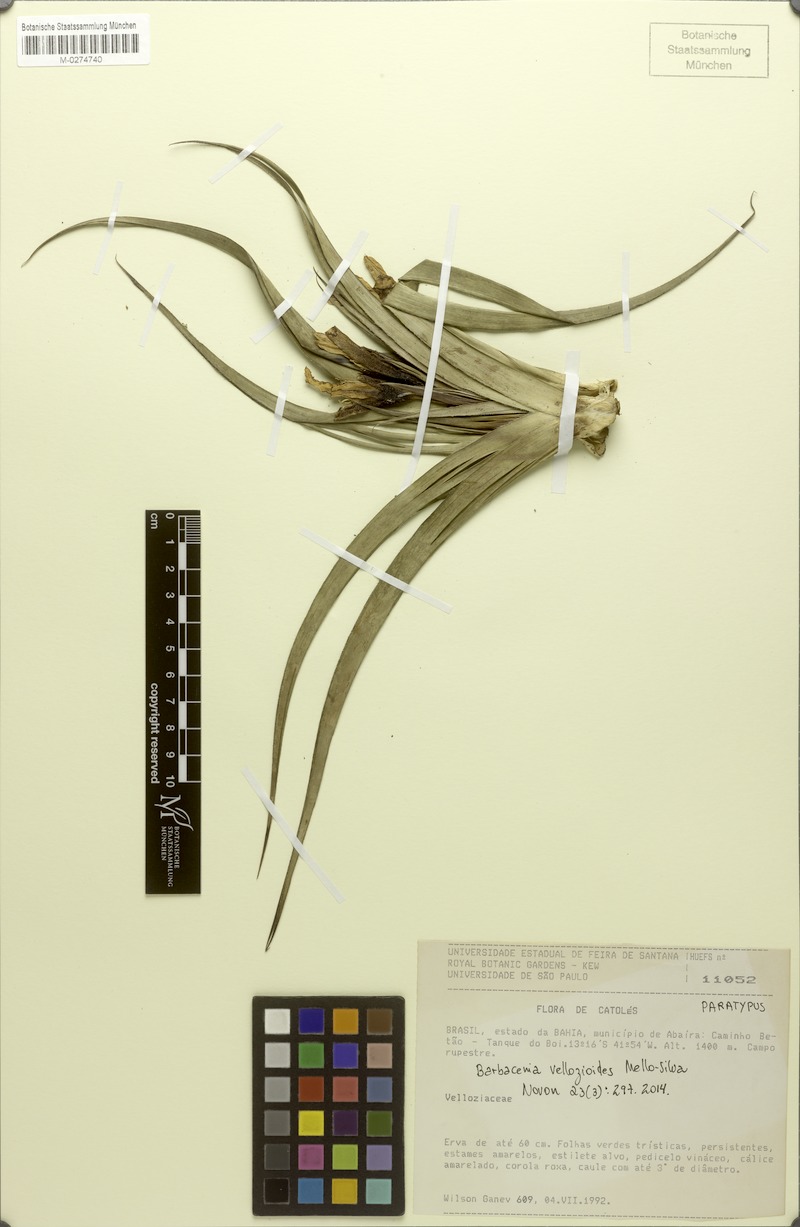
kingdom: Plantae
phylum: Tracheophyta
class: Liliopsida
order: Pandanales
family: Velloziaceae
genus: Barbacenia
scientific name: Barbacenia vellozioides
